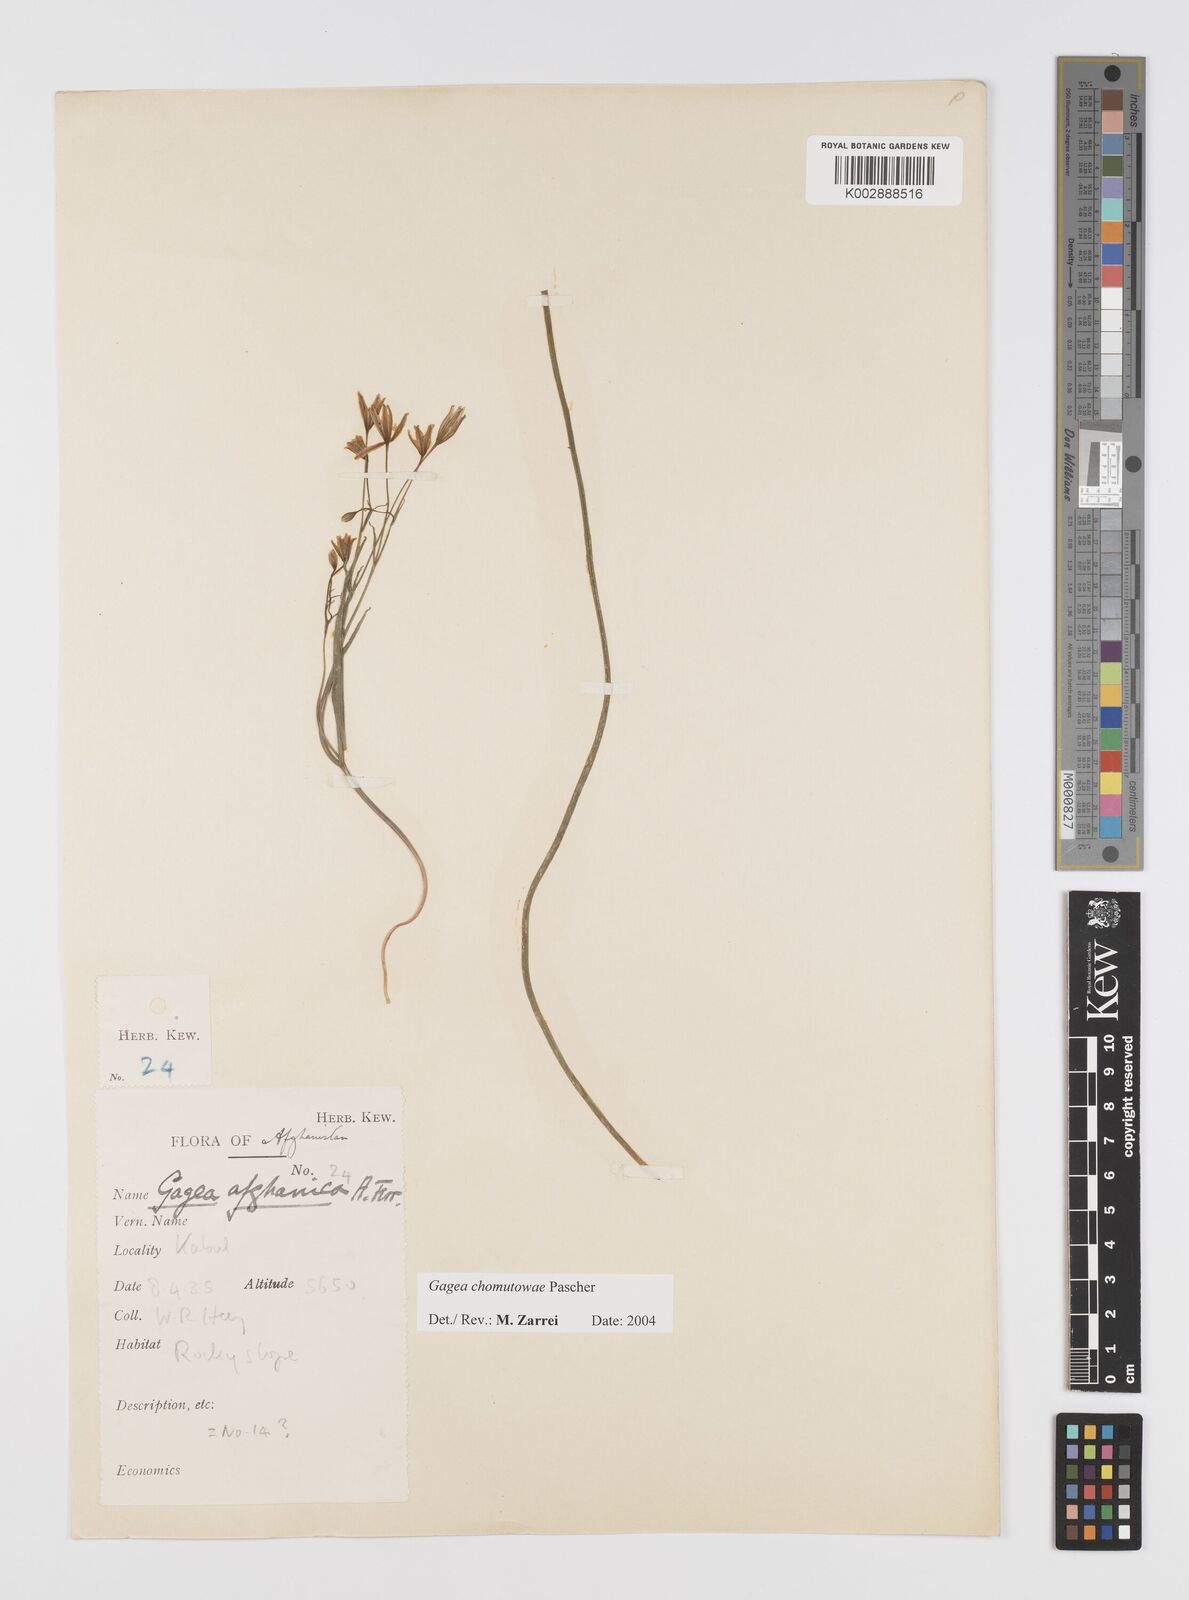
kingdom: Plantae
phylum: Tracheophyta
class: Liliopsida
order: Liliales
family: Liliaceae
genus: Gagea
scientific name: Gagea chomutovae
